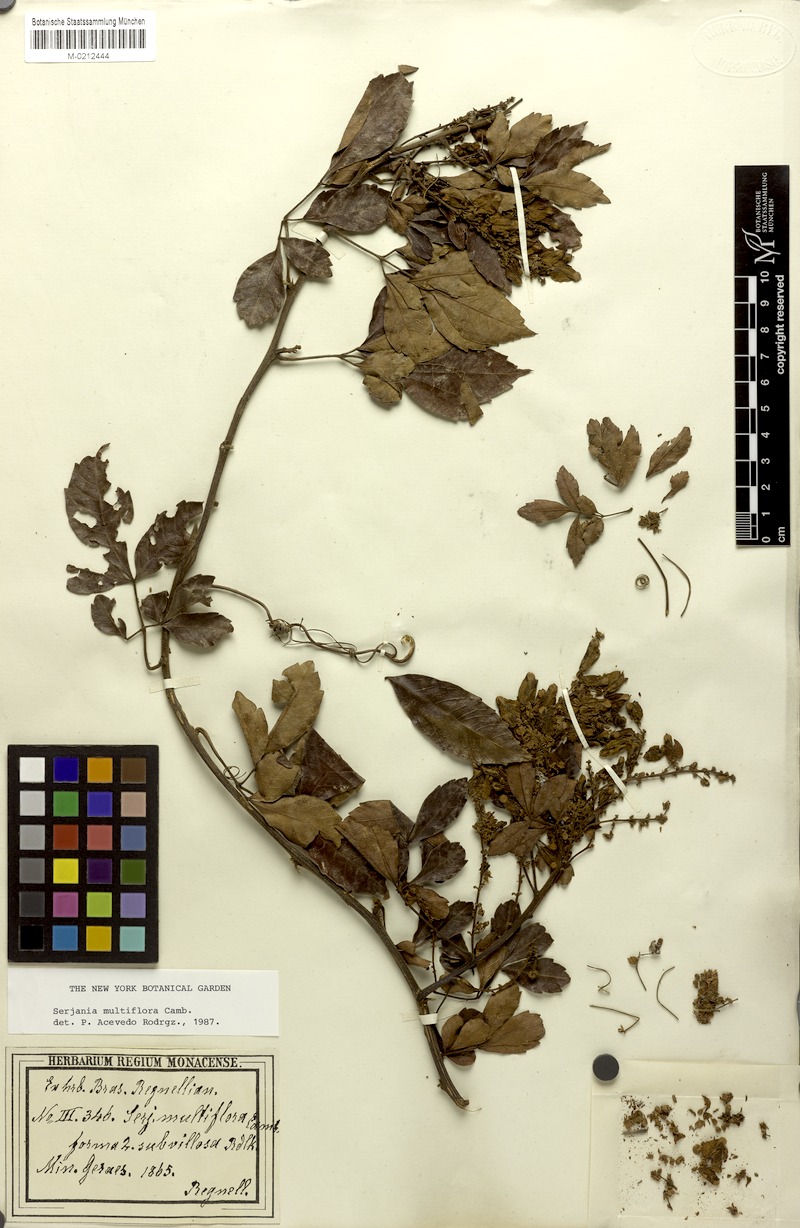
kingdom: Plantae
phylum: Tracheophyta
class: Magnoliopsida
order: Sapindales
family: Sapindaceae
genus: Serjania
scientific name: Serjania multiflora
